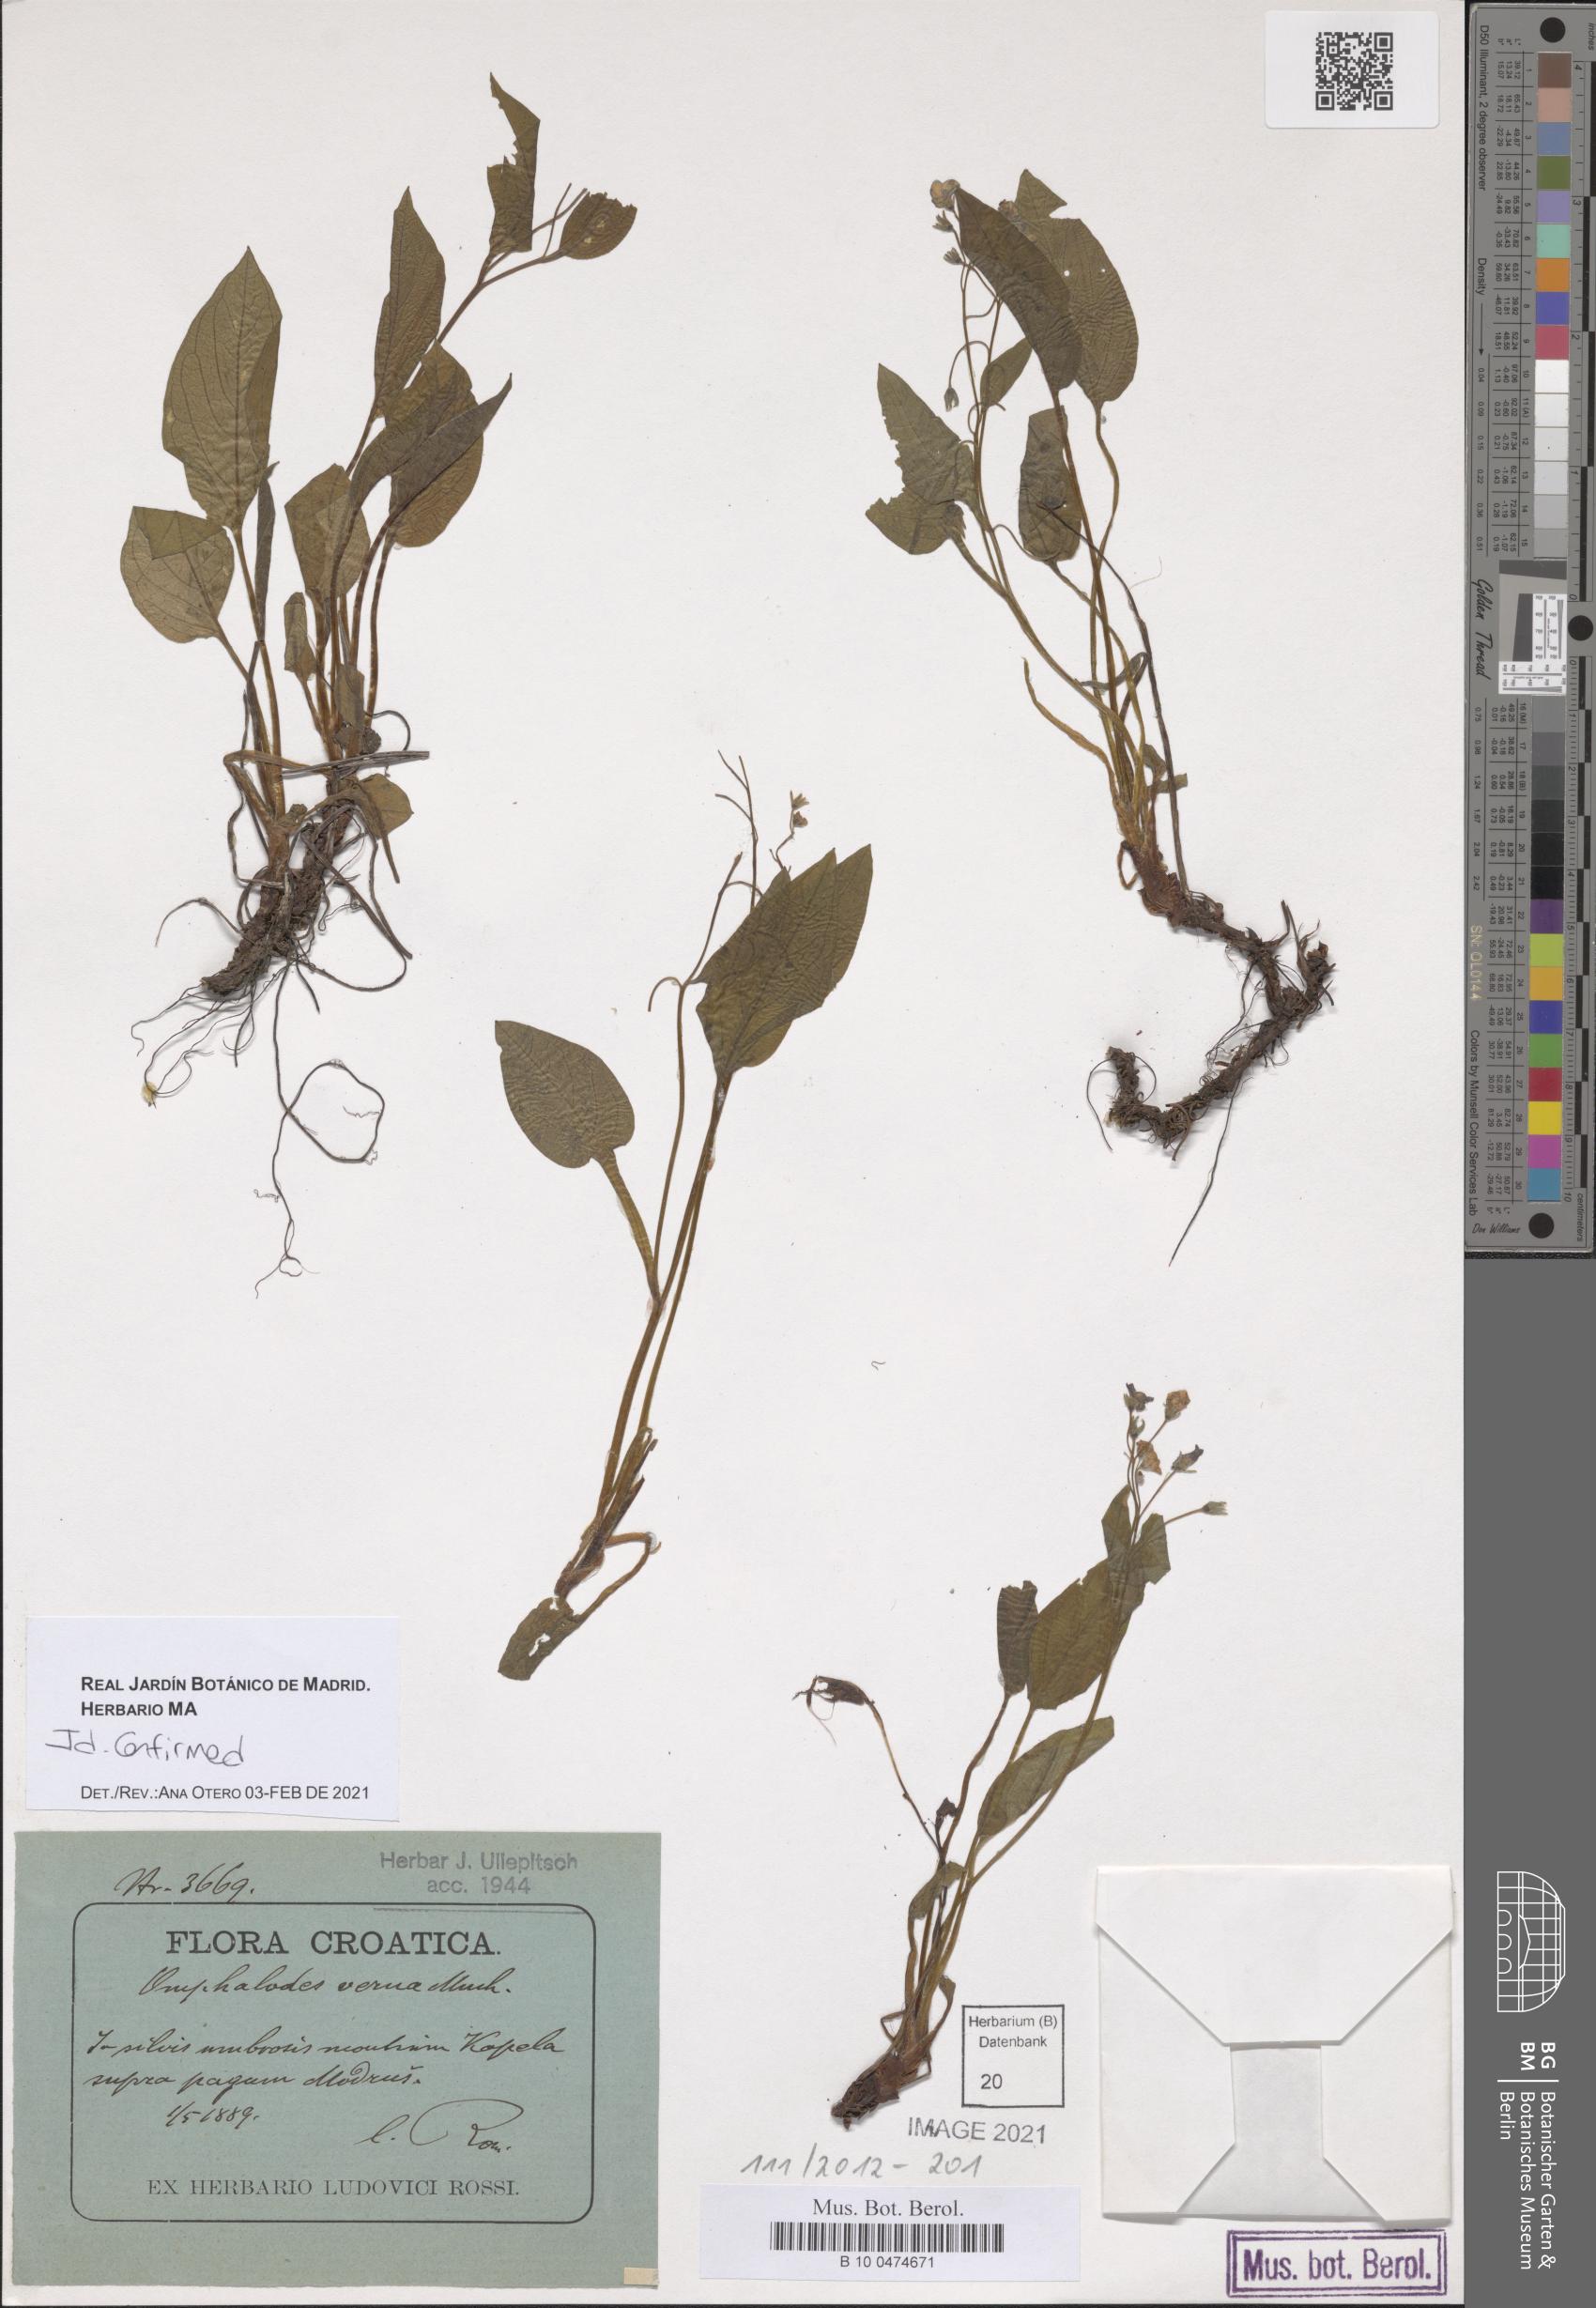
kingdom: Plantae
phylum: Tracheophyta
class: Magnoliopsida
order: Boraginales
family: Boraginaceae
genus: Omphalodes
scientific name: Omphalodes verna
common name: Blue-eyed-mary
